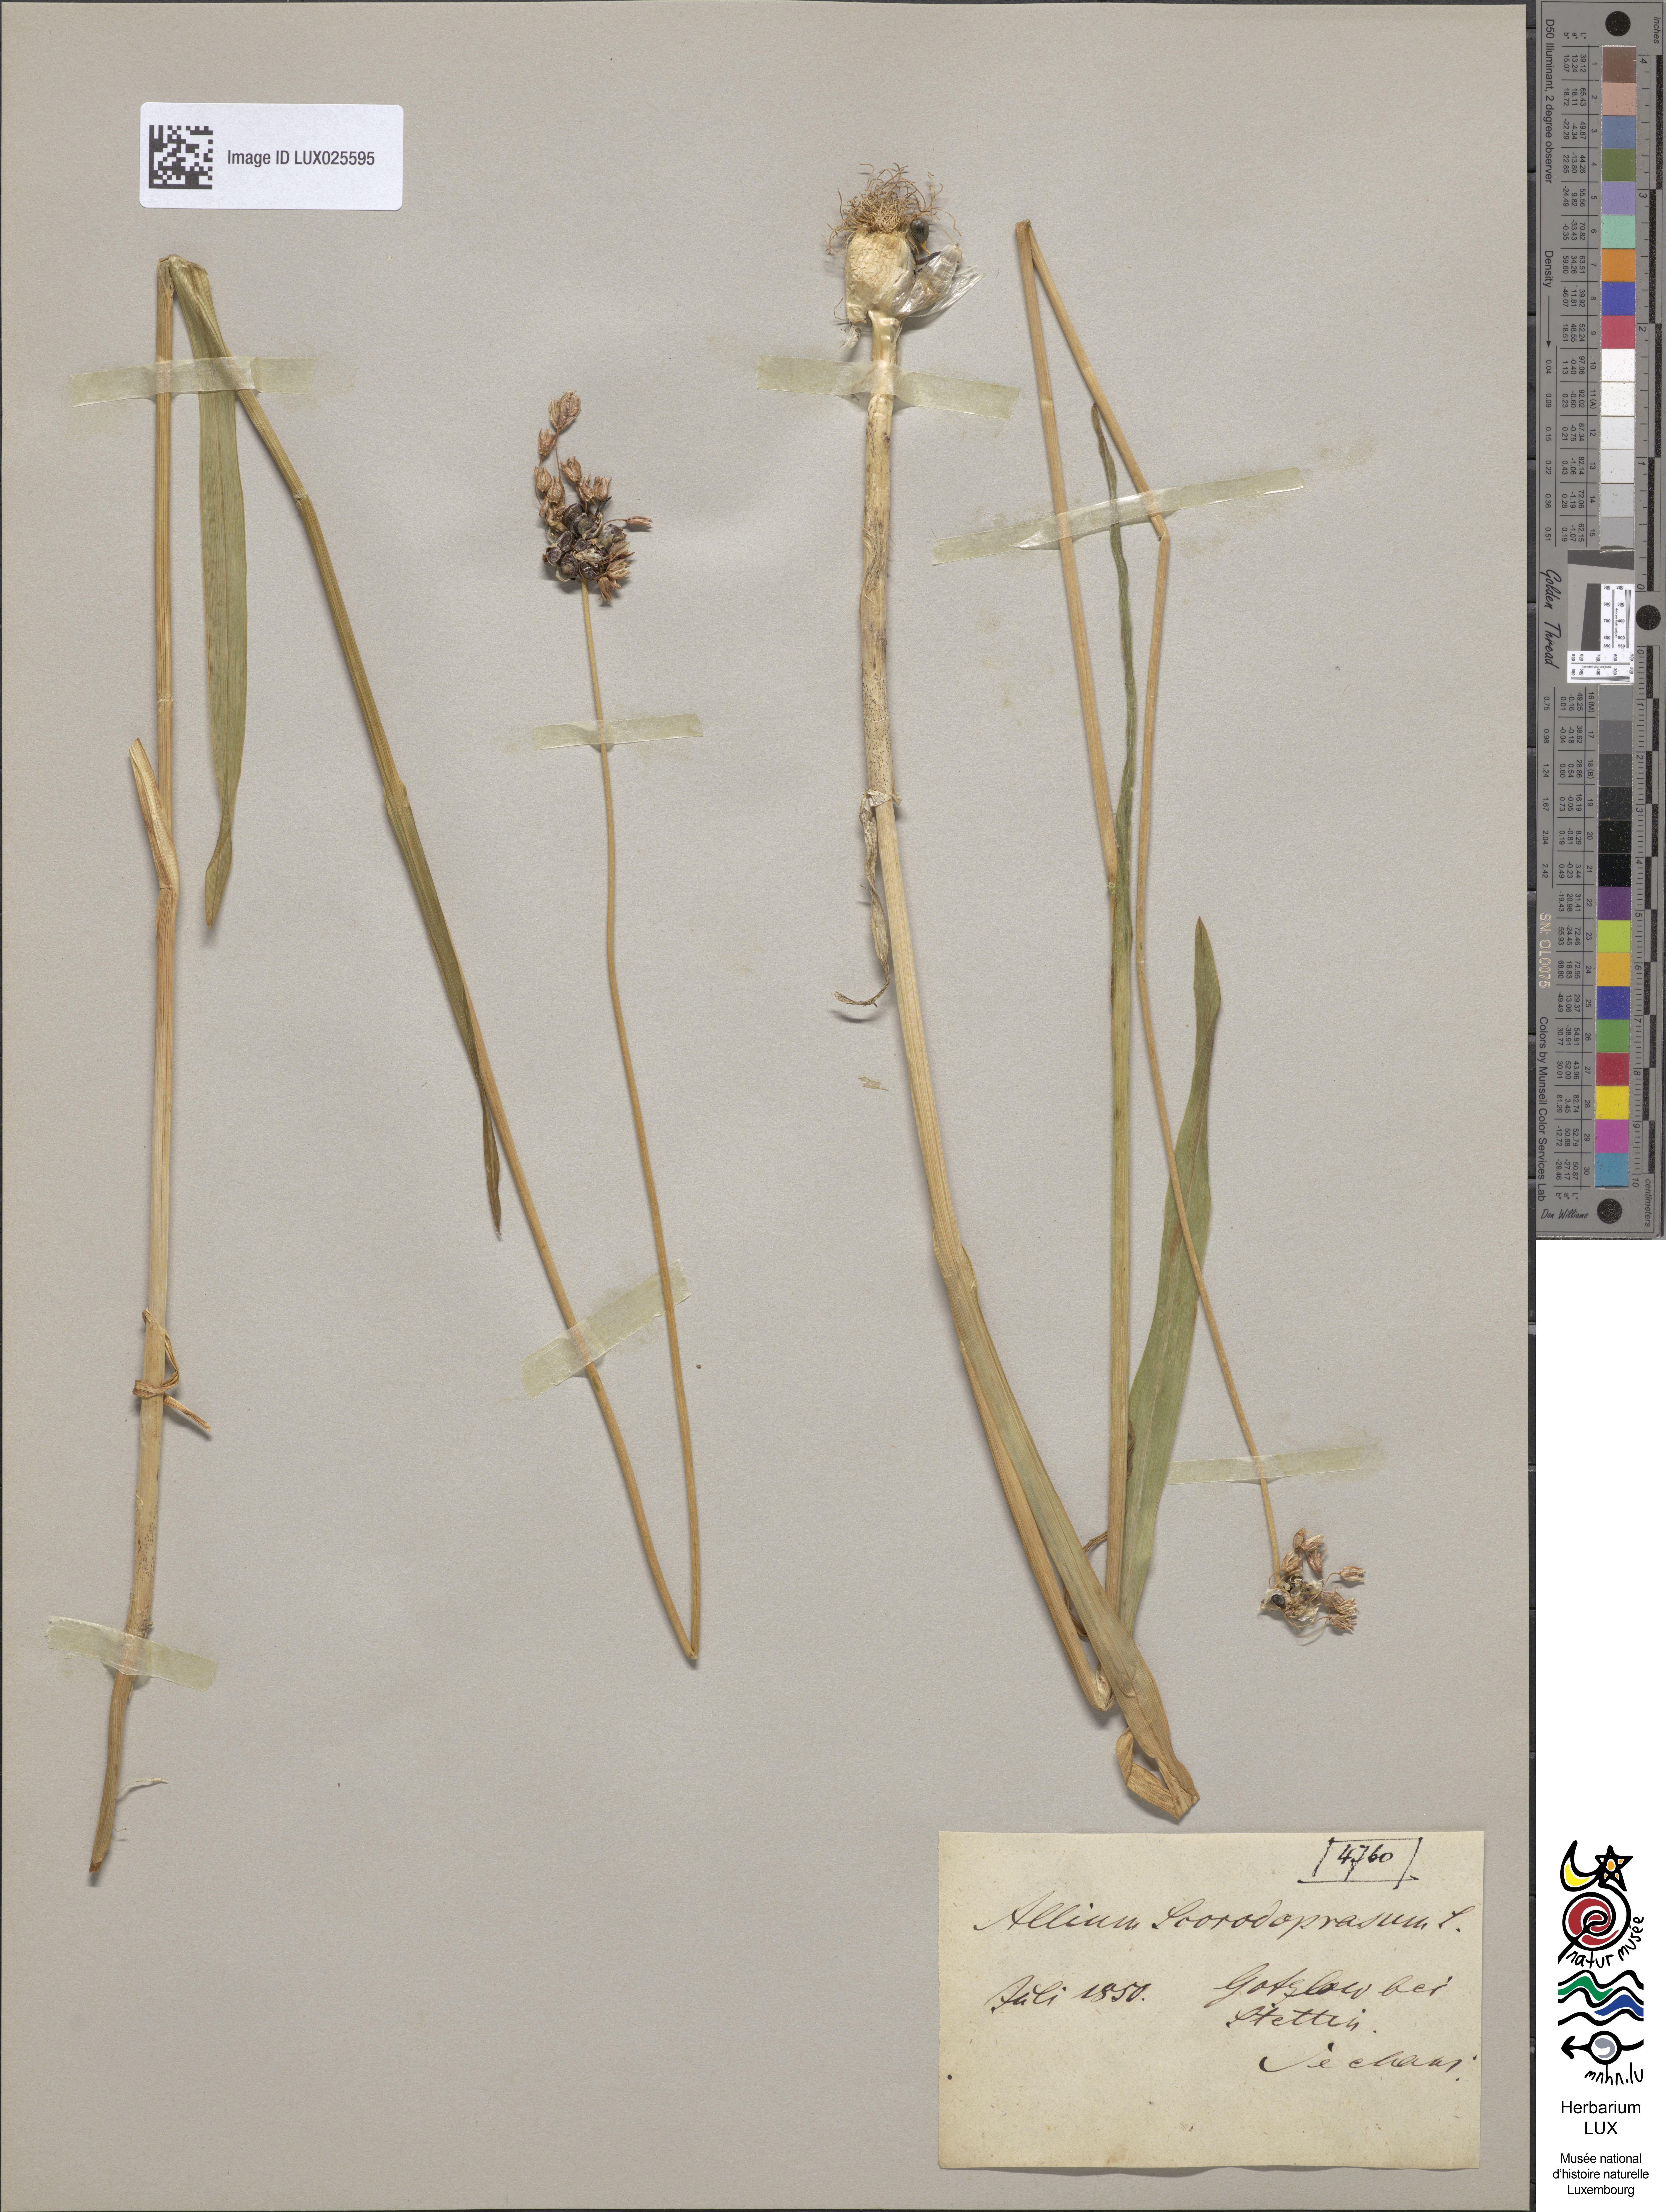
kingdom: Plantae
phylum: Tracheophyta
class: Liliopsida
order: Asparagales
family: Amaryllidaceae
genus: Allium
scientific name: Allium scorodoprasum
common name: Sand leek
